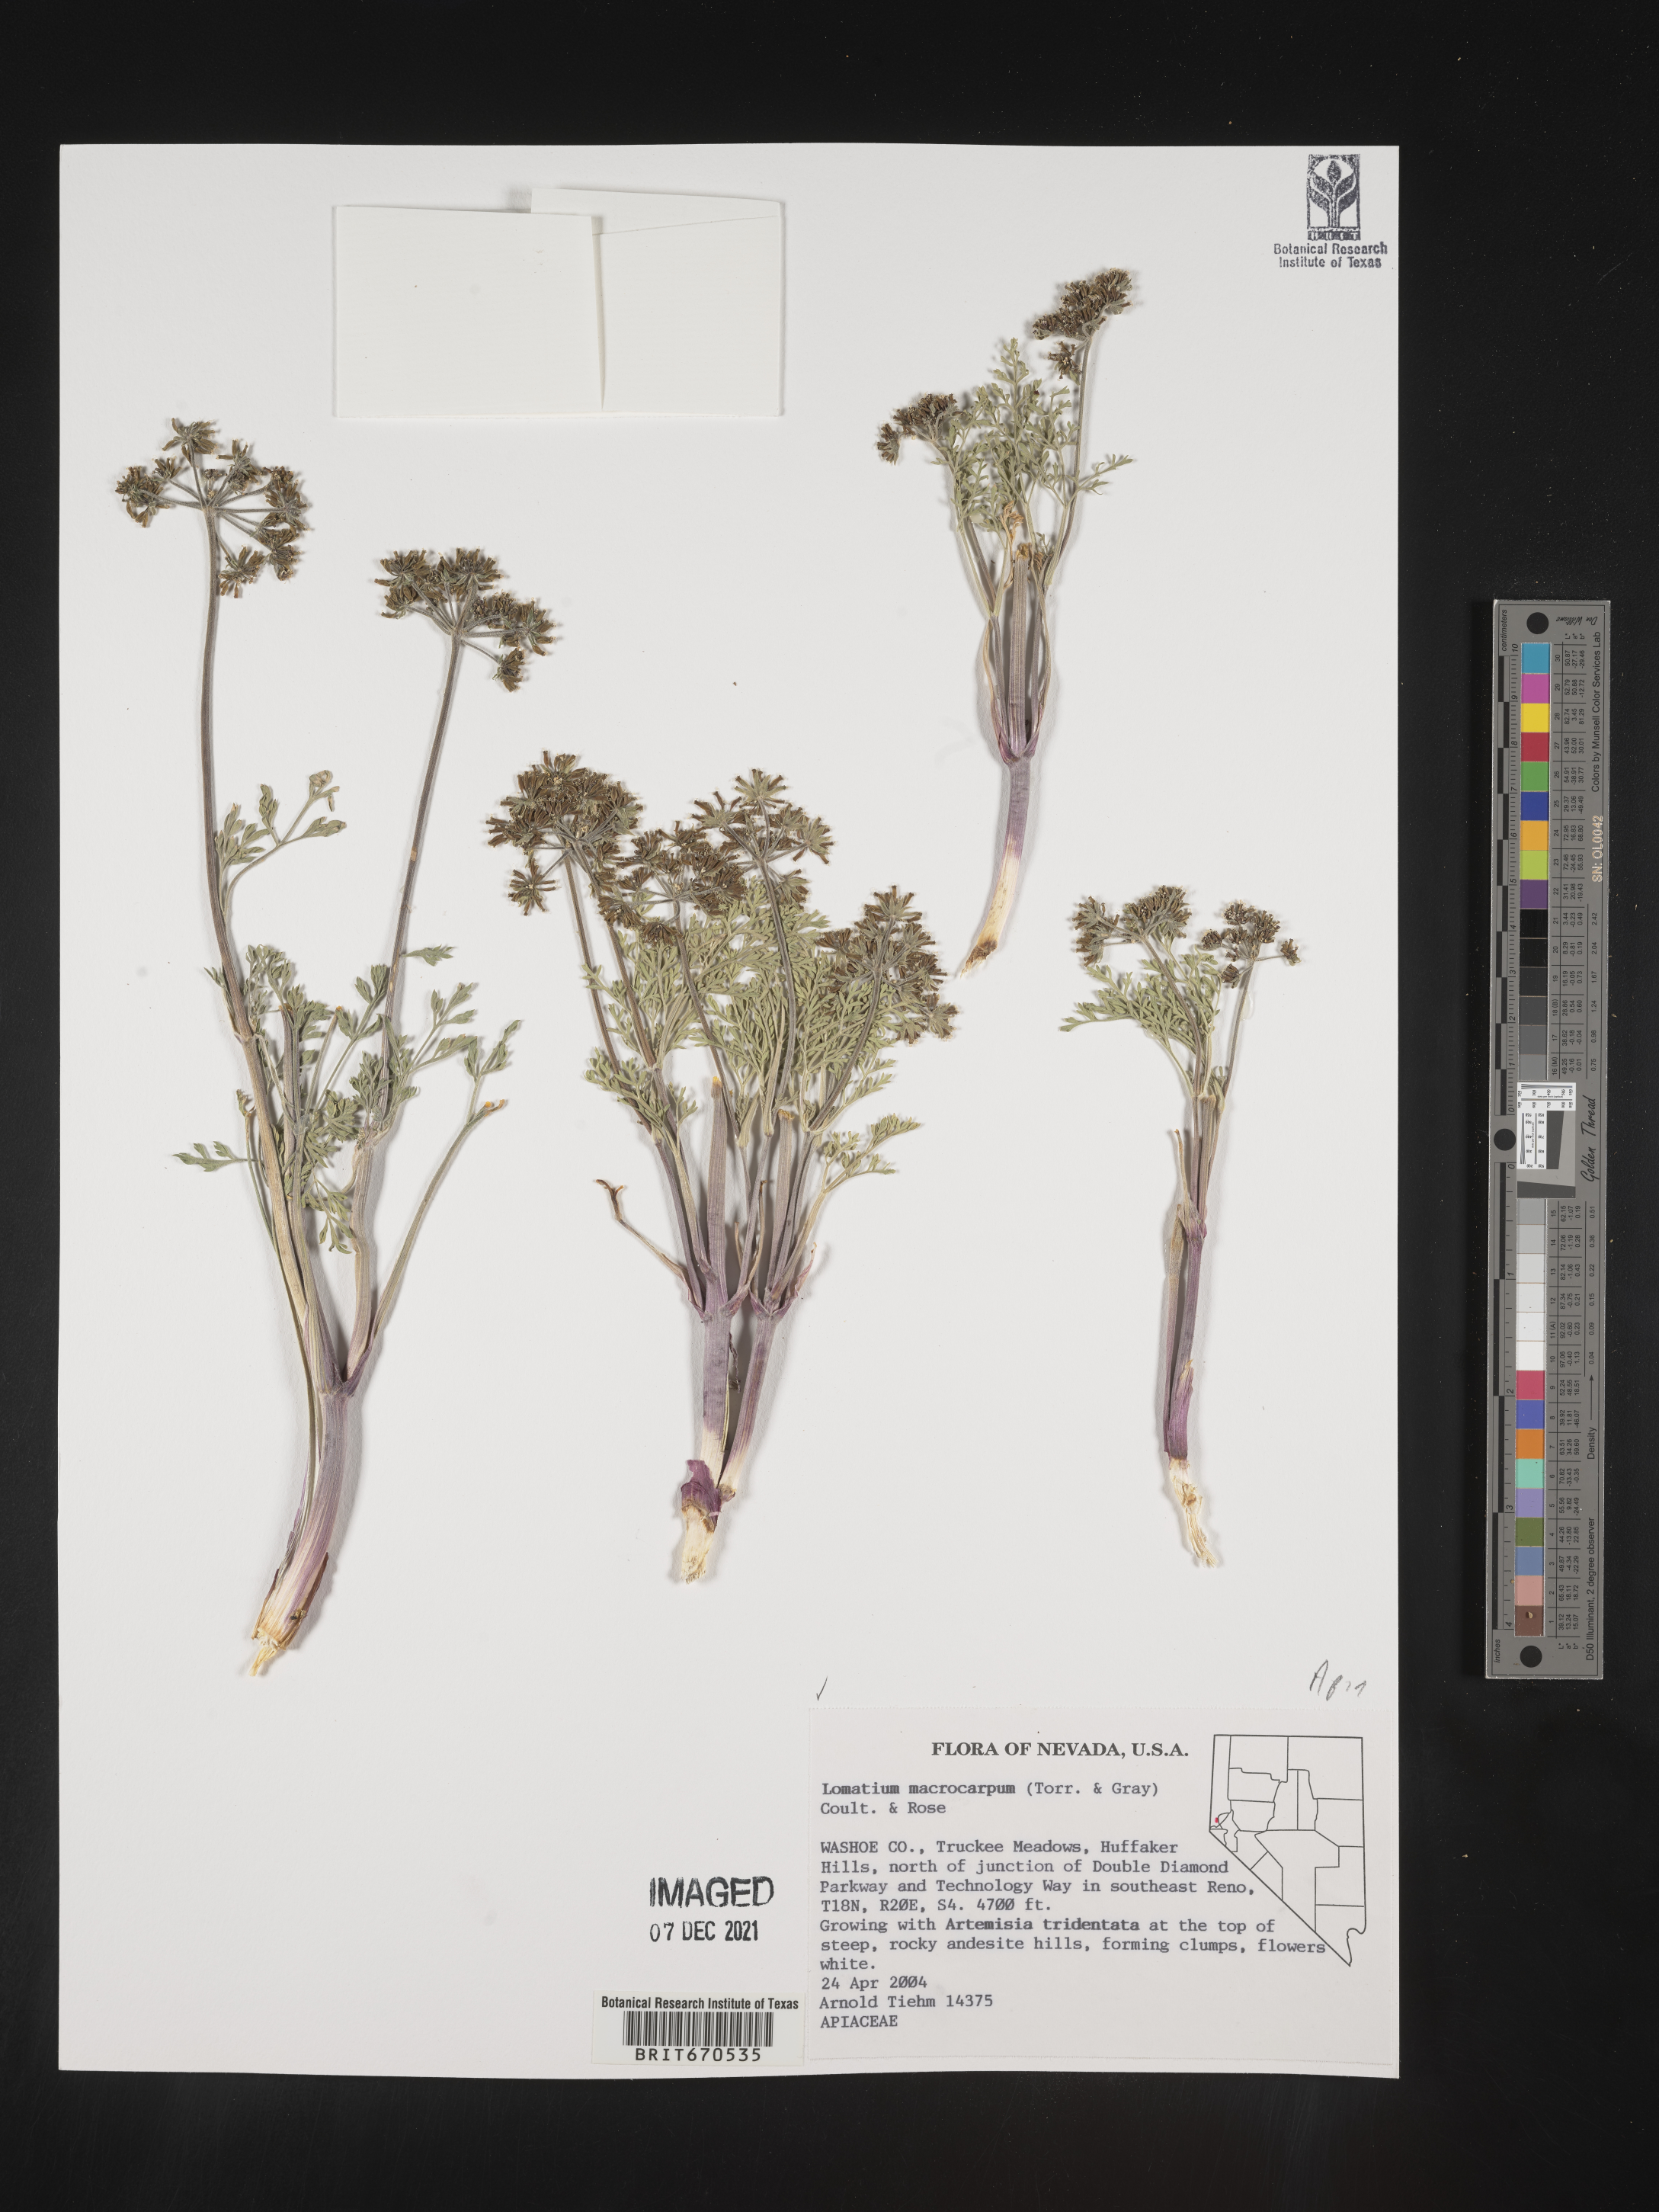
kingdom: Plantae
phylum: Tracheophyta
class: Magnoliopsida
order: Apiales
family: Apiaceae
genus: Lomatium
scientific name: Lomatium macrocarpum
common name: Big-seed biscuitroot
